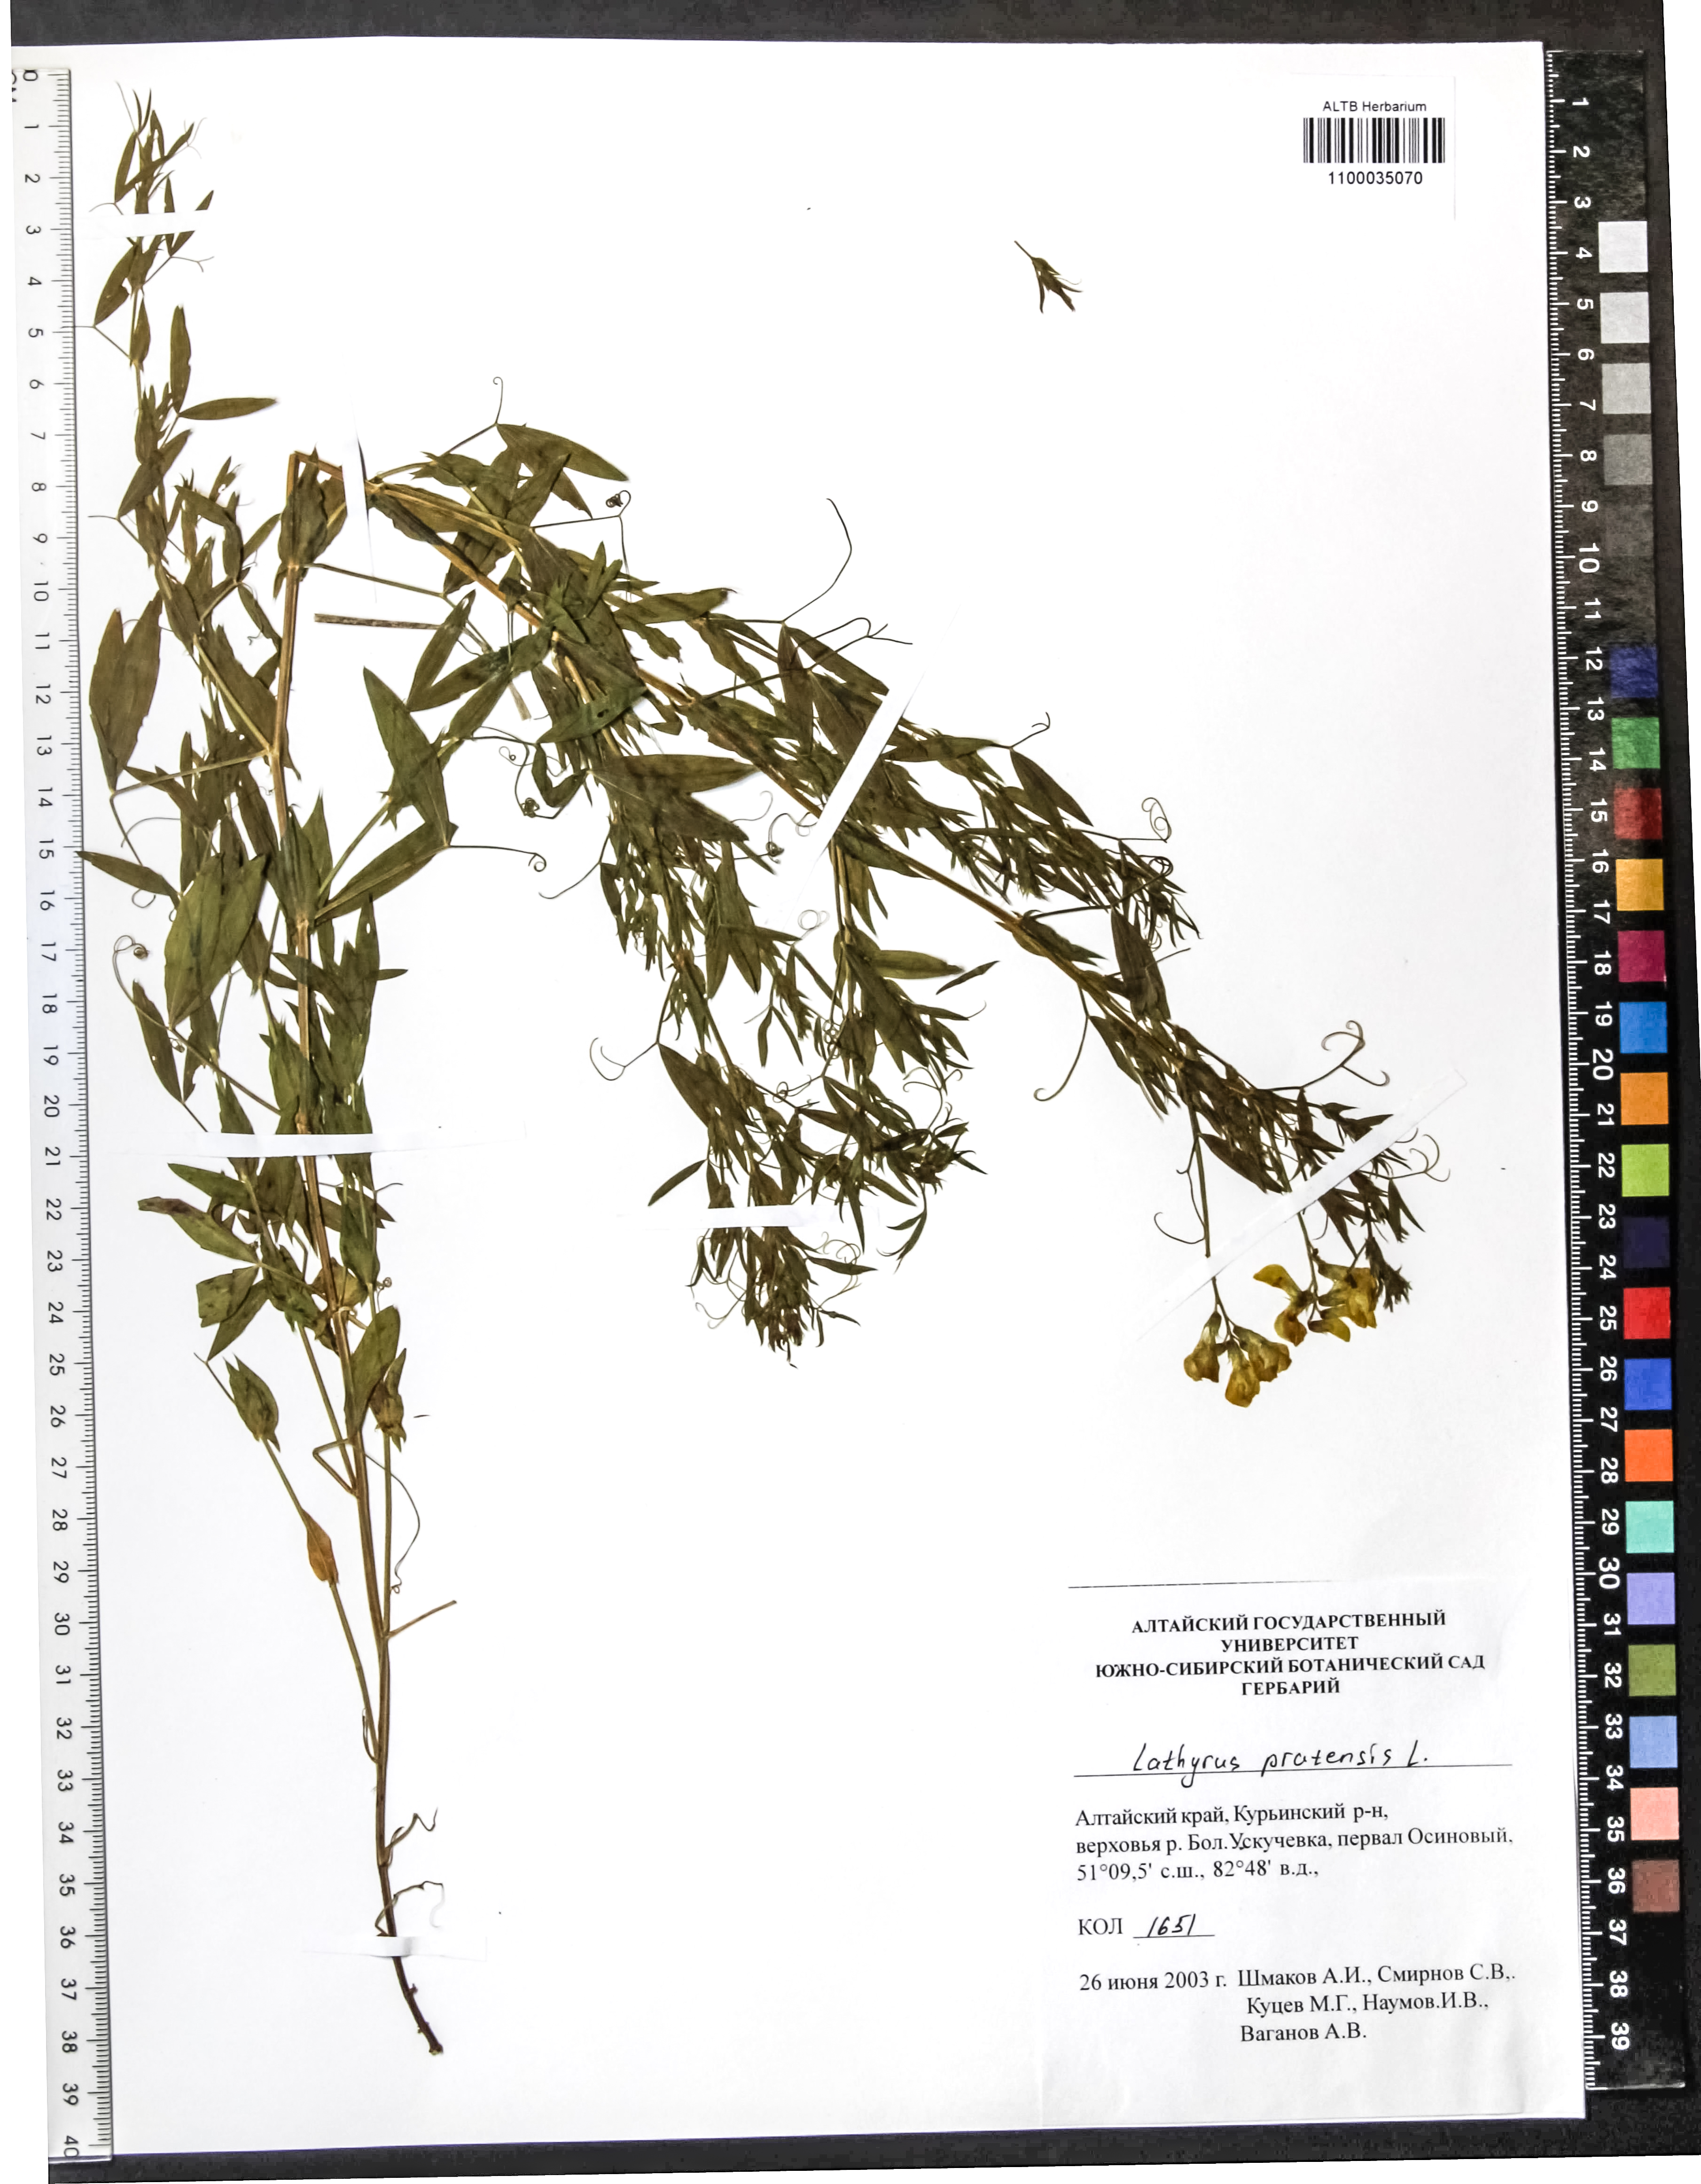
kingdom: Plantae
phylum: Tracheophyta
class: Magnoliopsida
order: Fabales
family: Fabaceae
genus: Lathyrus
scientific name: Lathyrus pratensis
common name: Meadow vetchling
